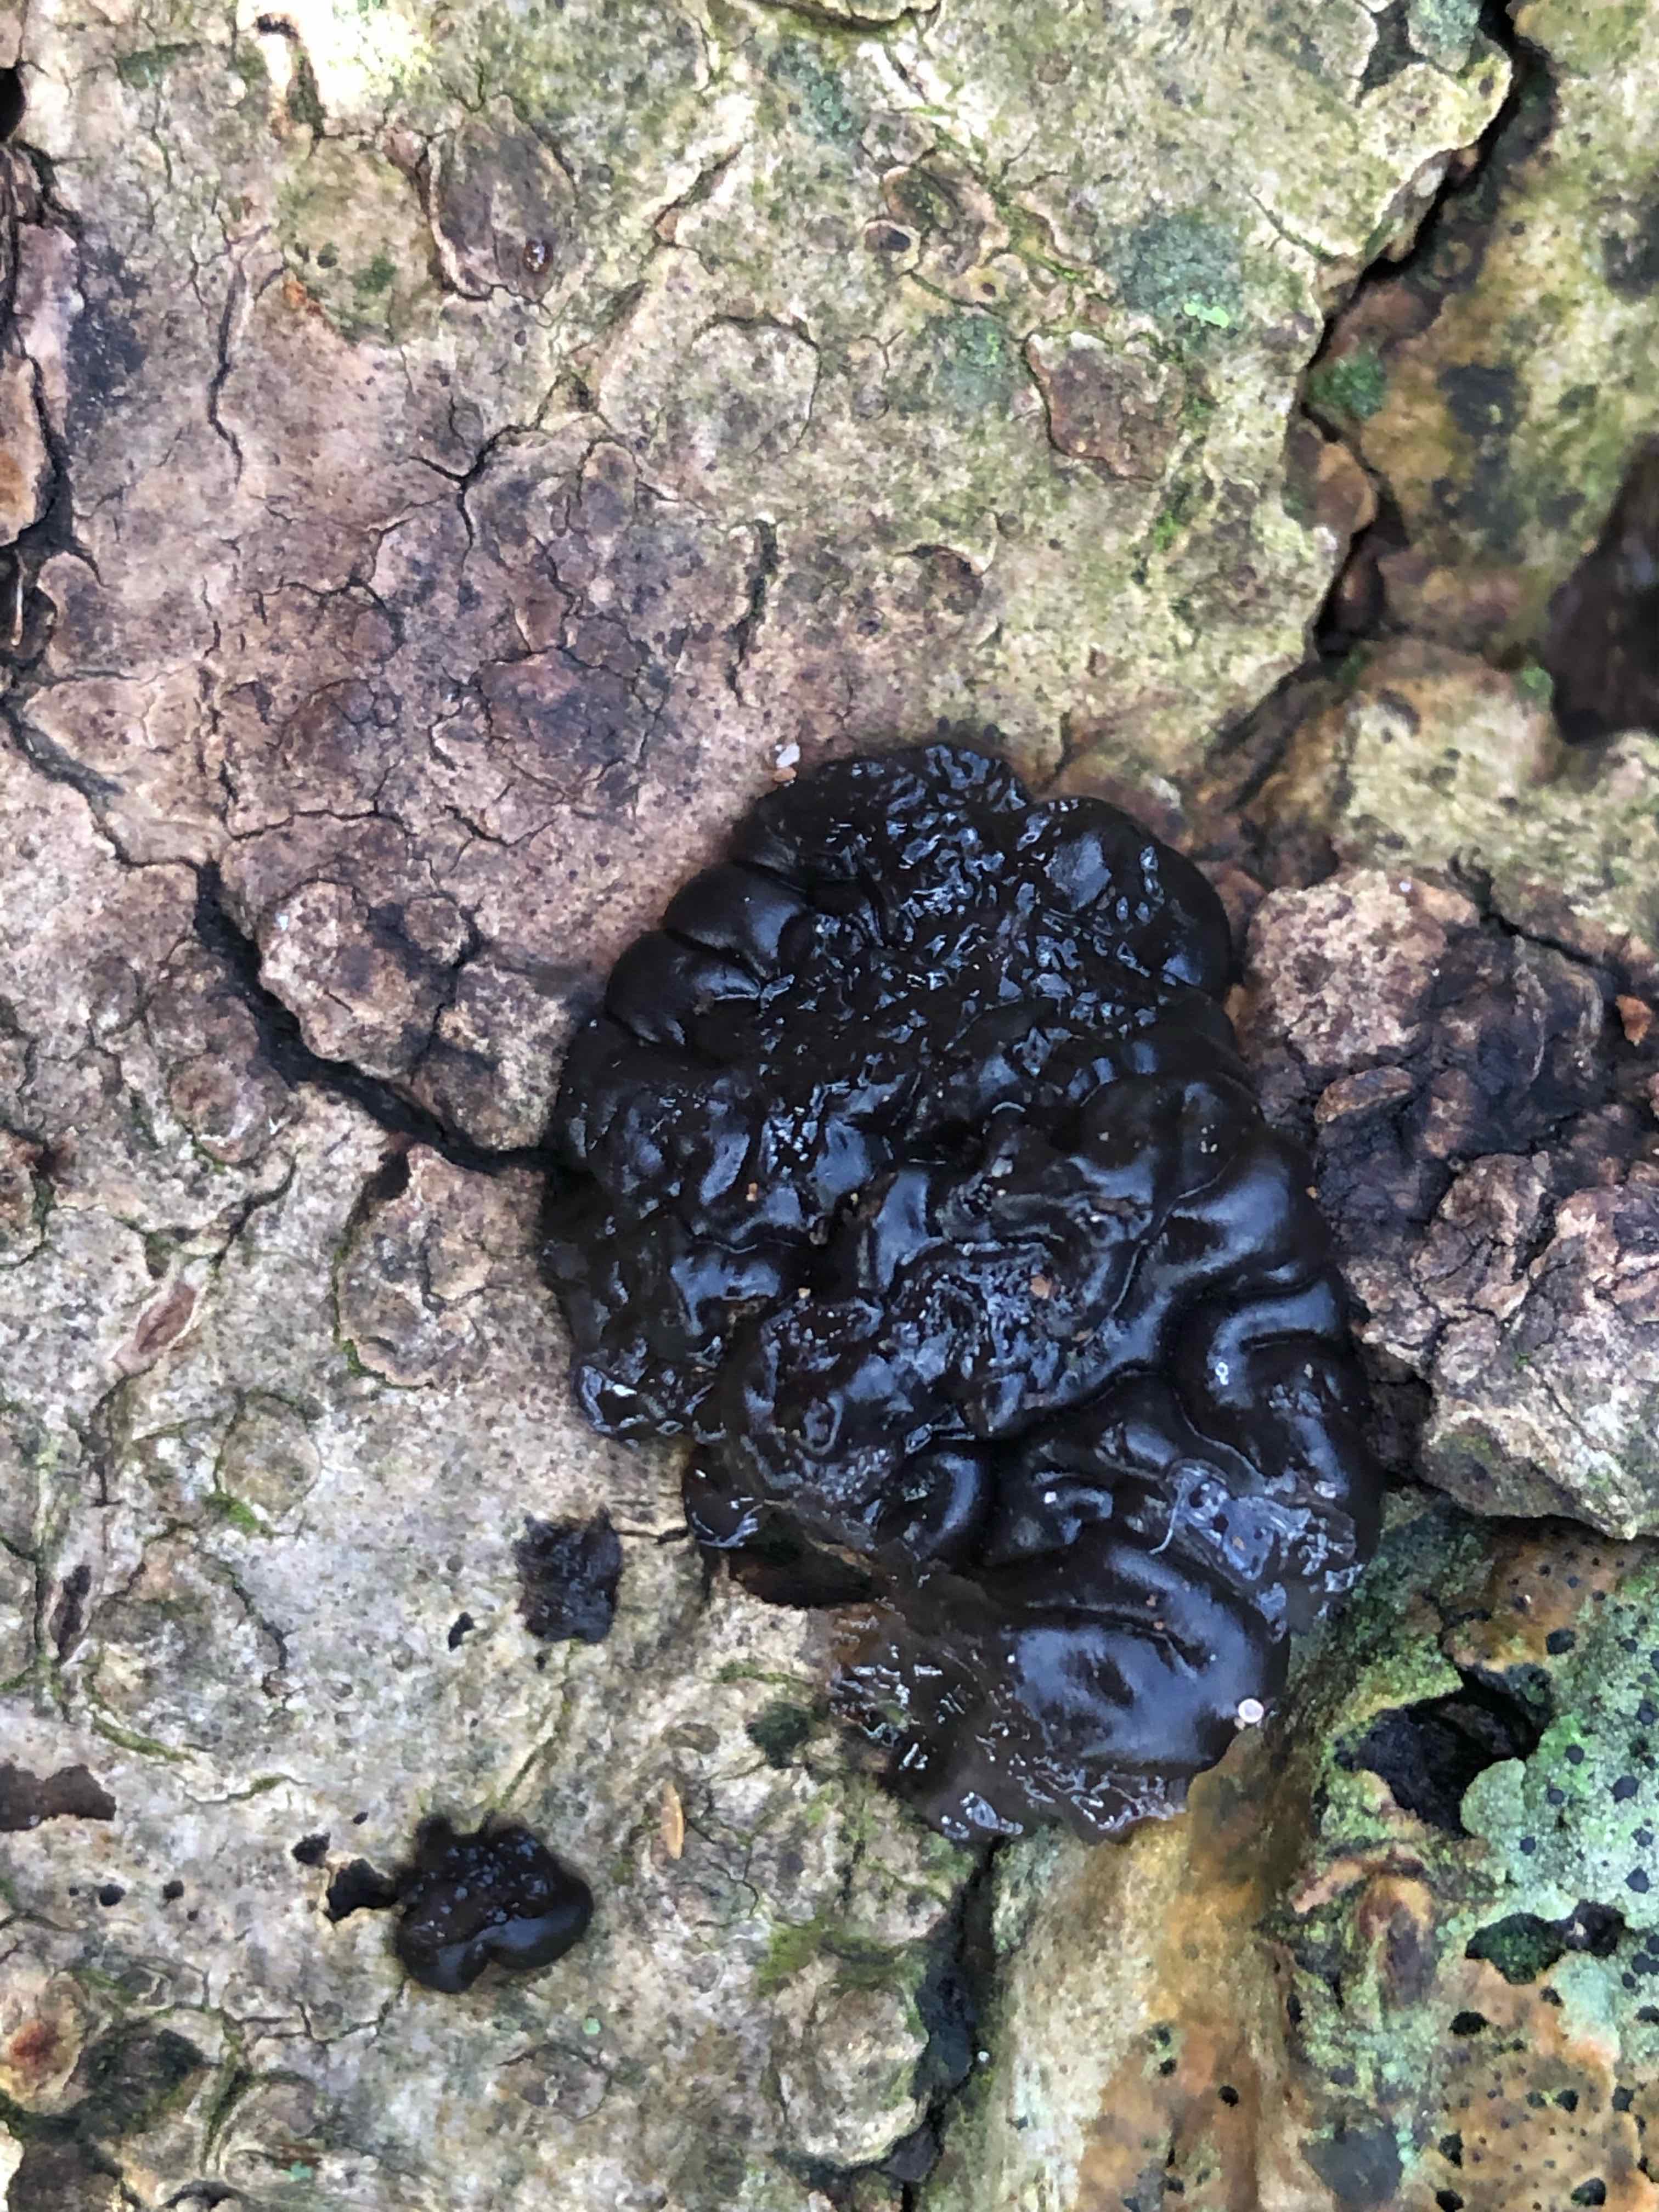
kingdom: Fungi
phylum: Basidiomycota
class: Agaricomycetes
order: Auriculariales
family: Auriculariaceae
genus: Exidia
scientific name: Exidia nigricans
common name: almindelig bævretop
